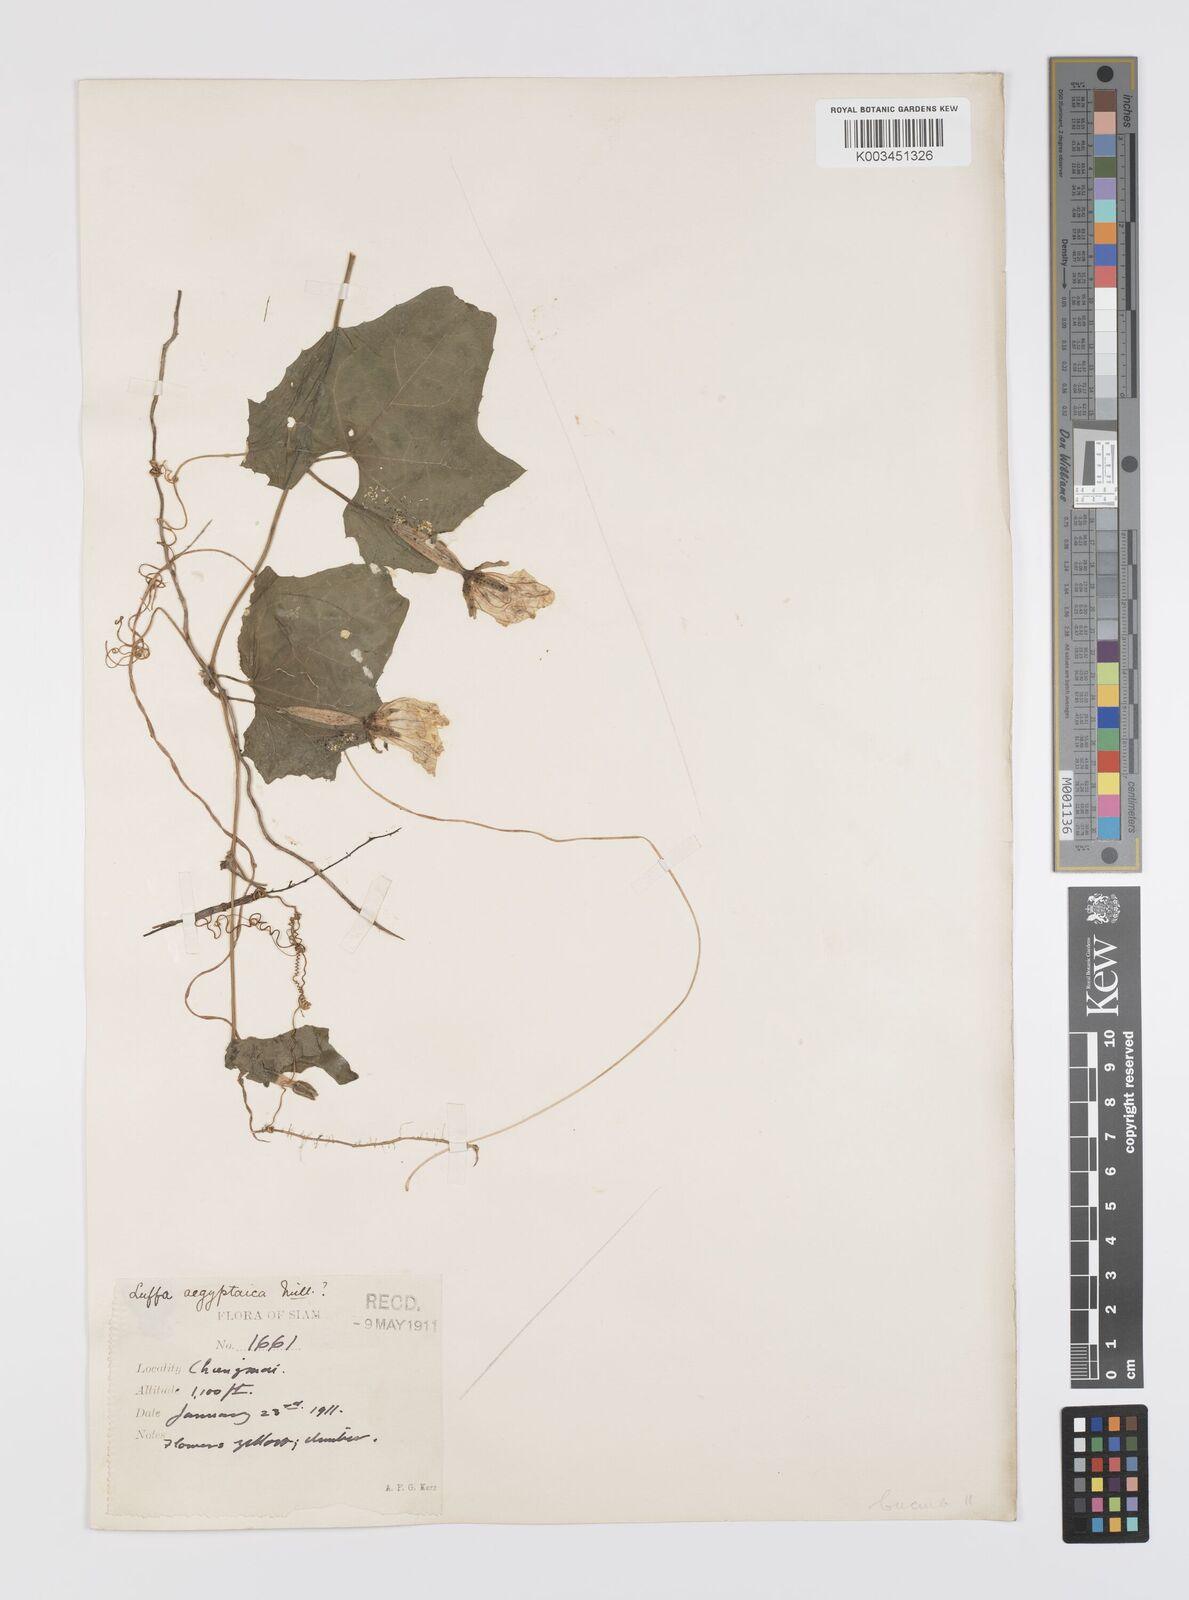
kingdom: Plantae
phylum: Tracheophyta
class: Magnoliopsida
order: Cucurbitales
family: Cucurbitaceae
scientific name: Cucurbitaceae
